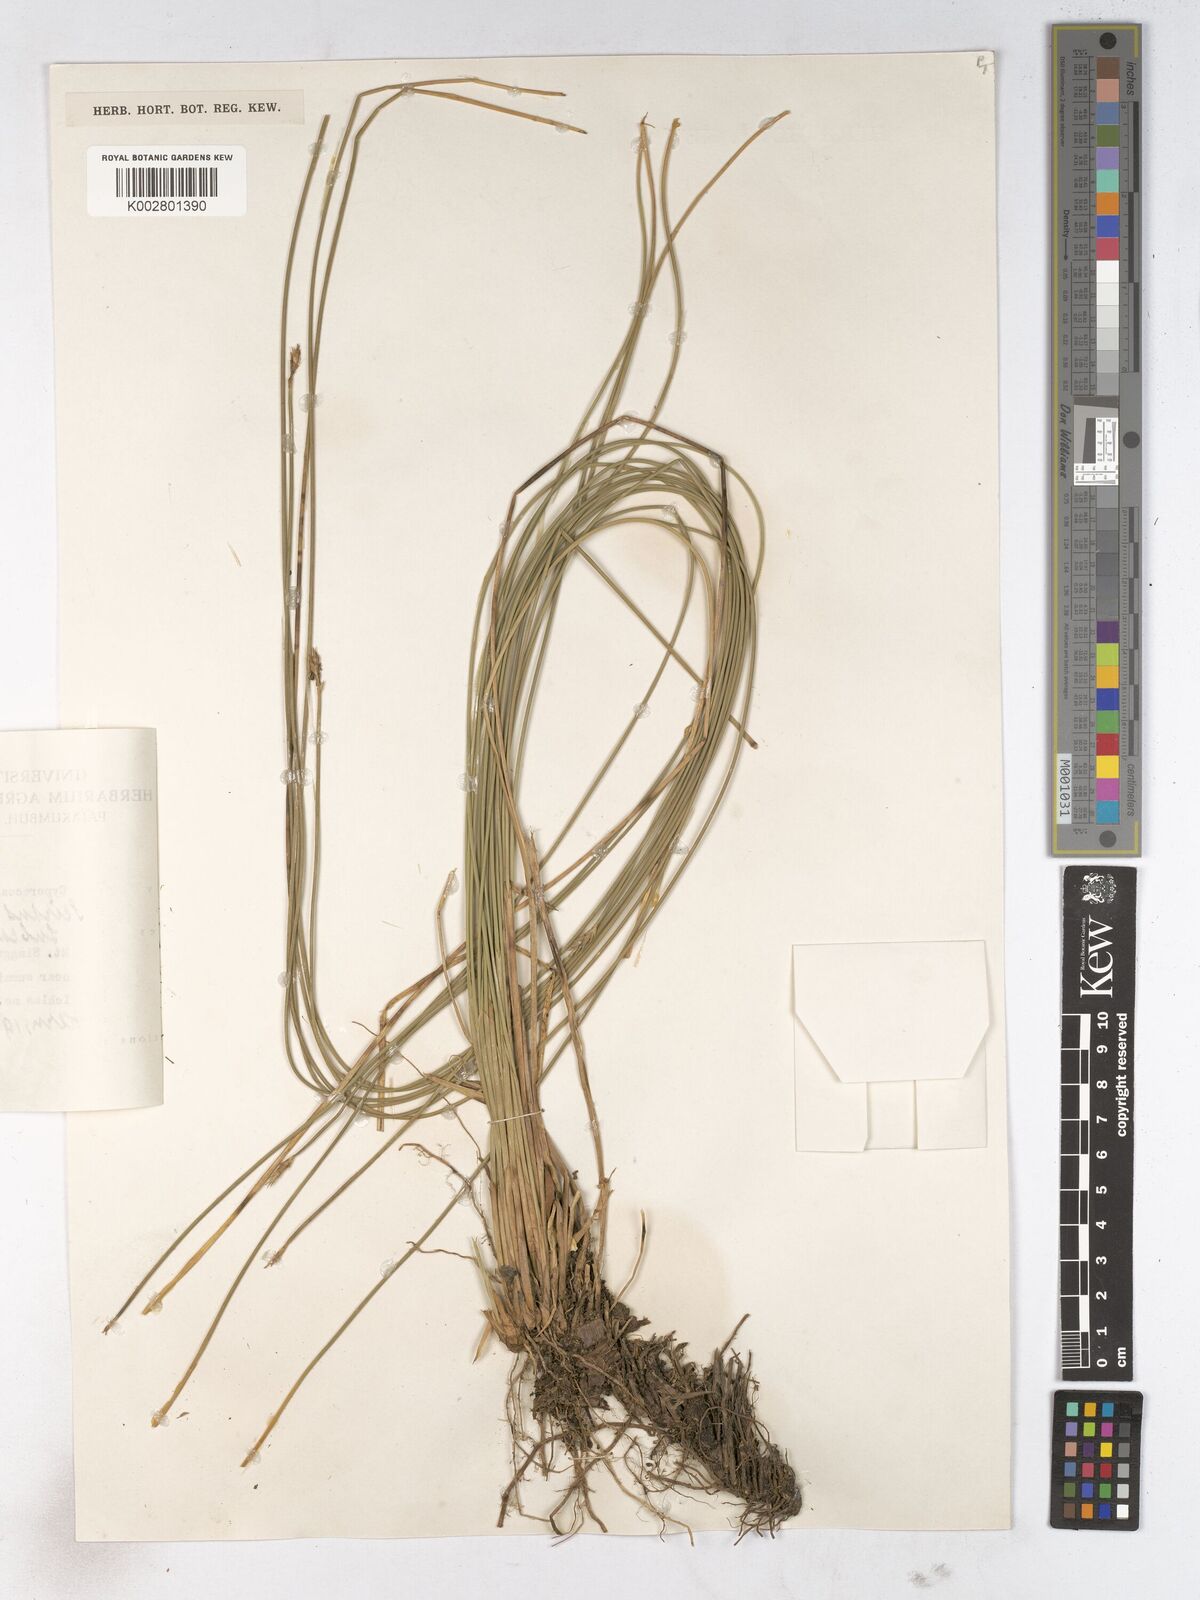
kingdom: Plantae
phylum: Tracheophyta
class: Liliopsida
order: Poales
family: Cyperaceae
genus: Trichophorum
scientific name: Trichophorum subcapitatum
